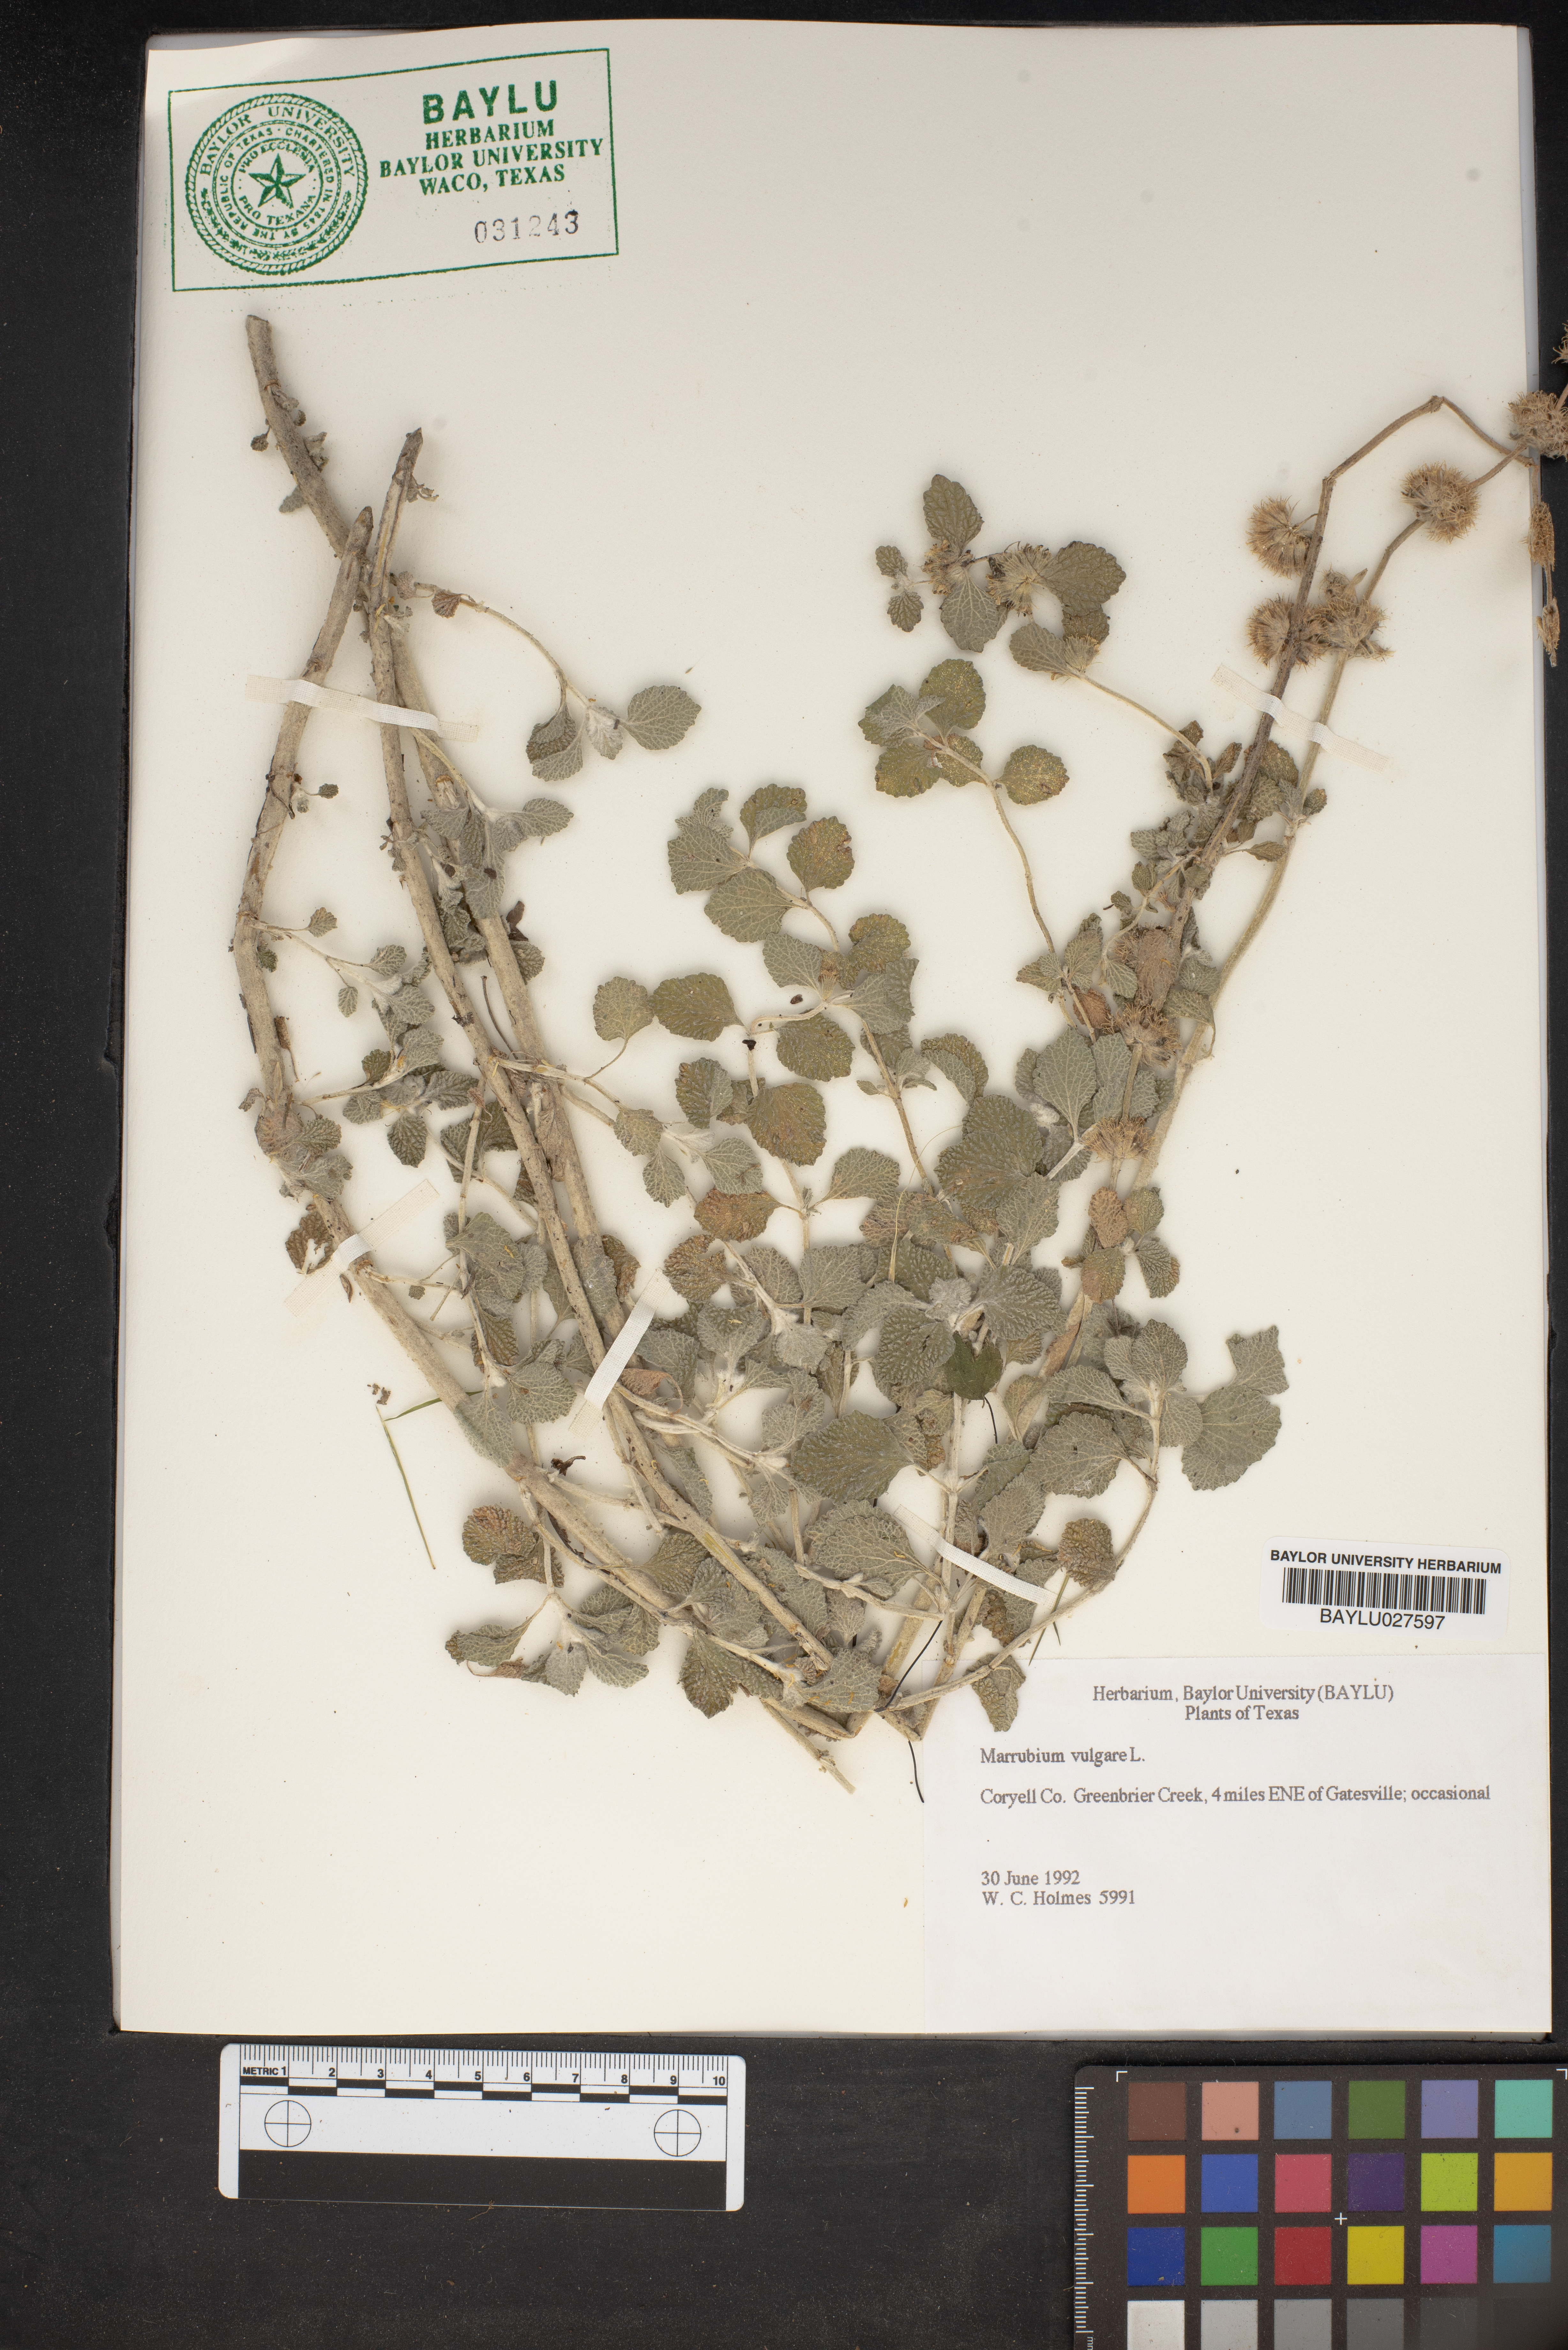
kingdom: Plantae
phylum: Tracheophyta
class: Magnoliopsida
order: Lamiales
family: Lamiaceae
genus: Marrubium
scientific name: Marrubium vulgare
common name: Horehound
